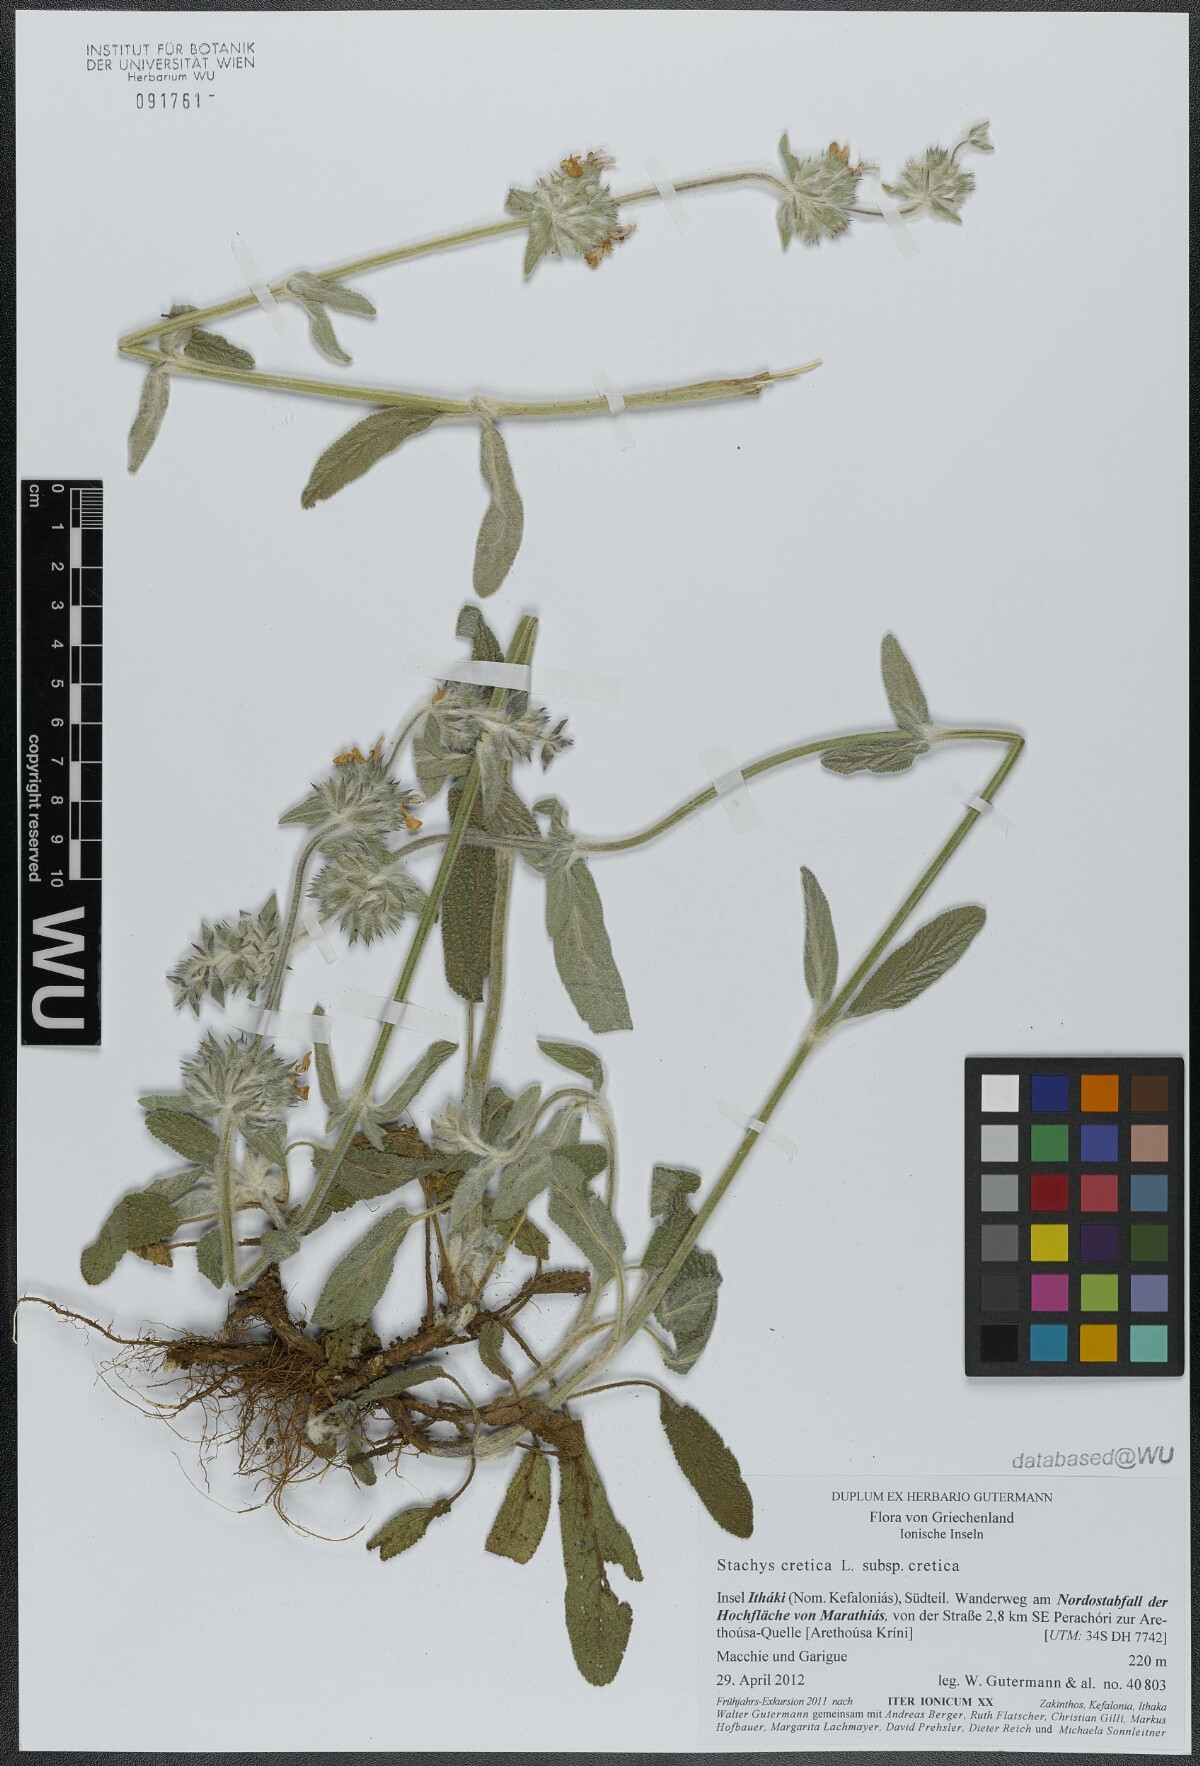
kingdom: Plantae
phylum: Tracheophyta
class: Magnoliopsida
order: Lamiales
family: Lamiaceae
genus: Stachys
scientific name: Stachys cretica
